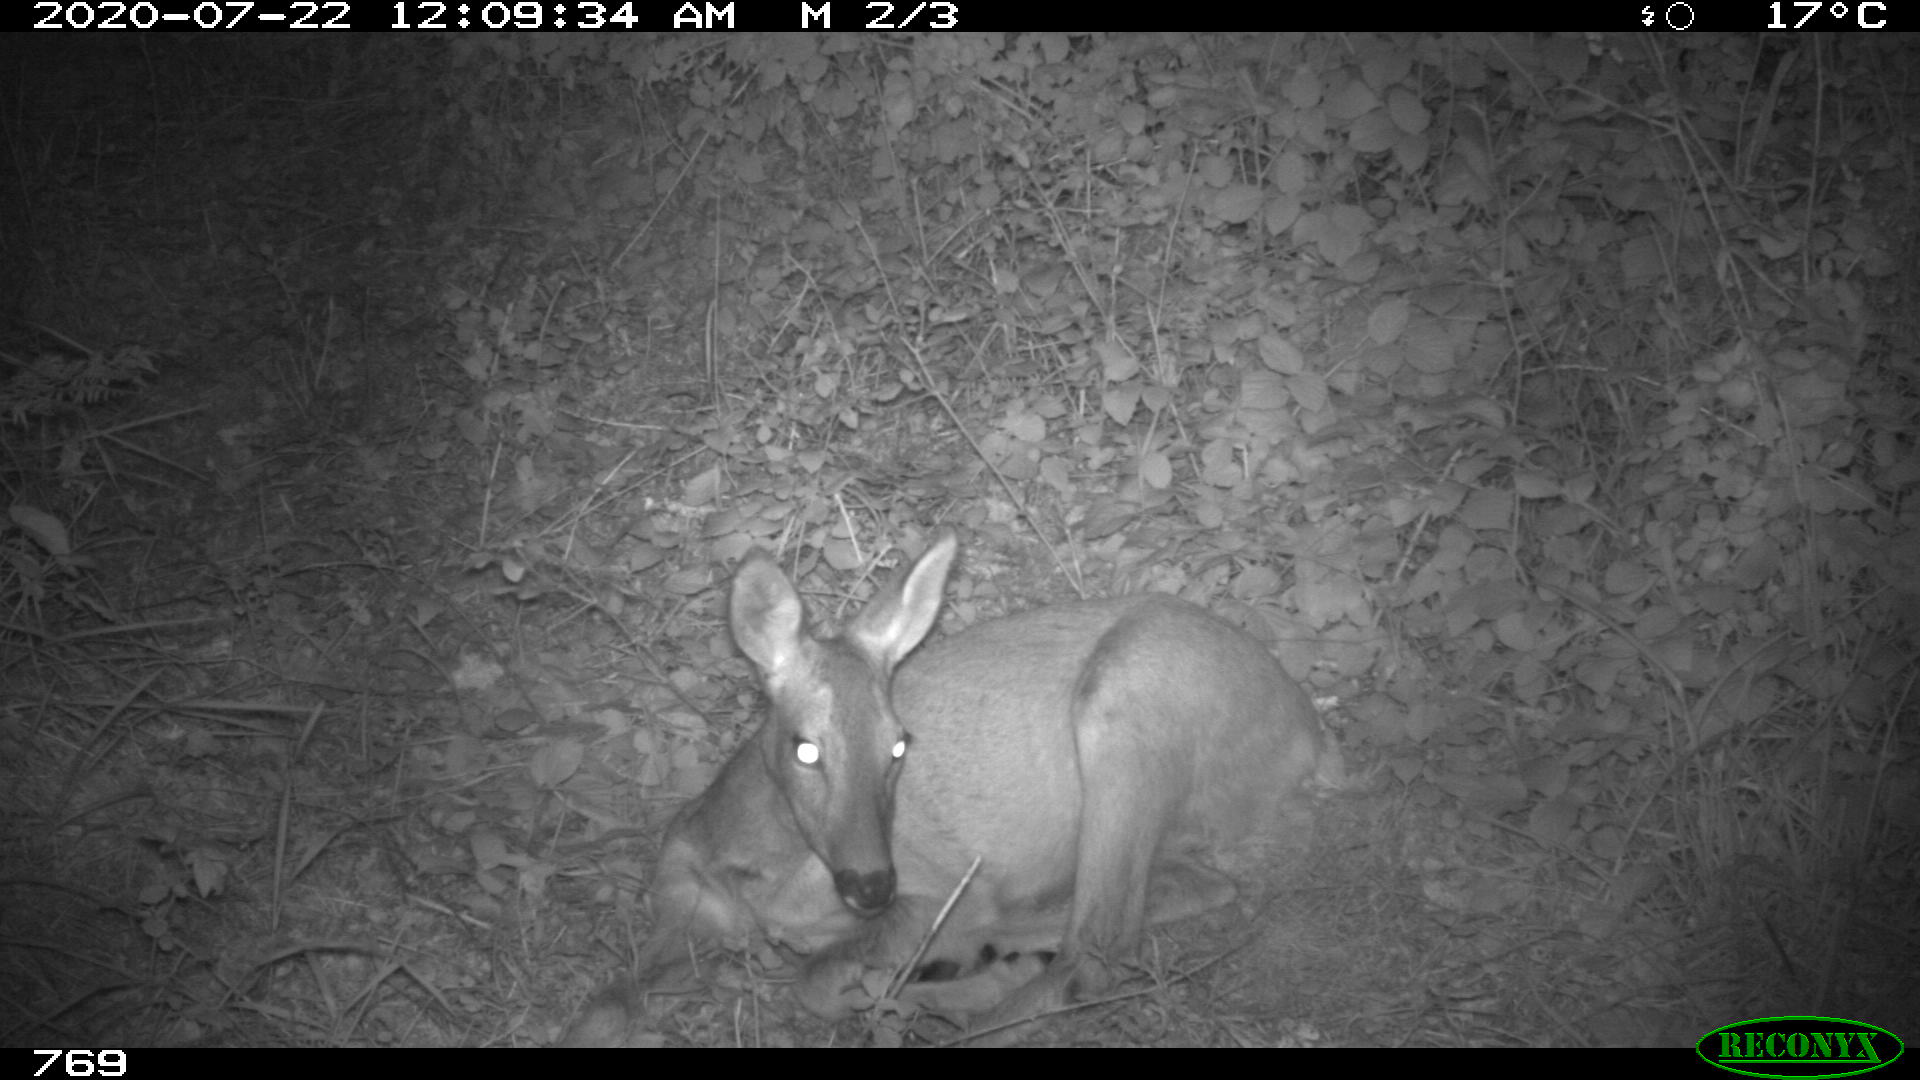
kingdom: Animalia
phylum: Chordata
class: Mammalia
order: Artiodactyla
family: Cervidae
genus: Capreolus
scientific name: Capreolus capreolus
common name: Western roe deer
